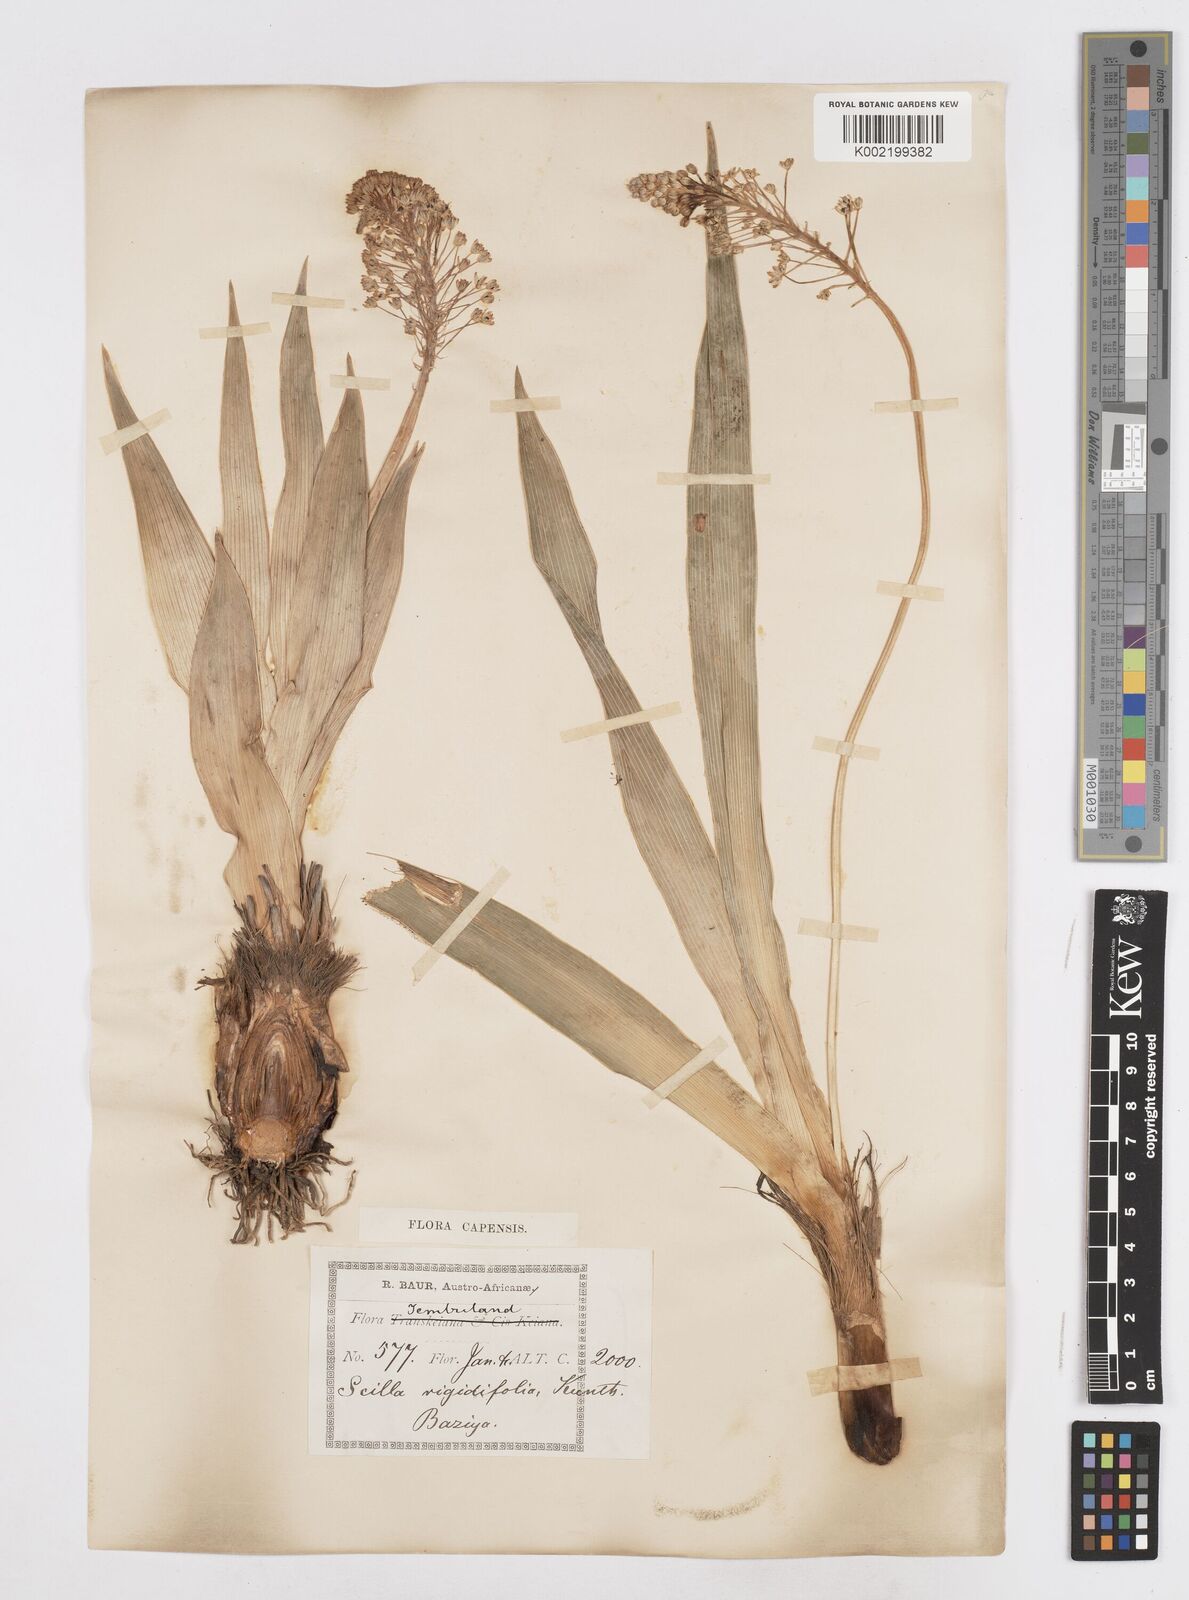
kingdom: Plantae
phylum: Tracheophyta
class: Liliopsida
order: Asparagales
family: Asparagaceae
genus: Schizocarphus
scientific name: Schizocarphus nervosus
